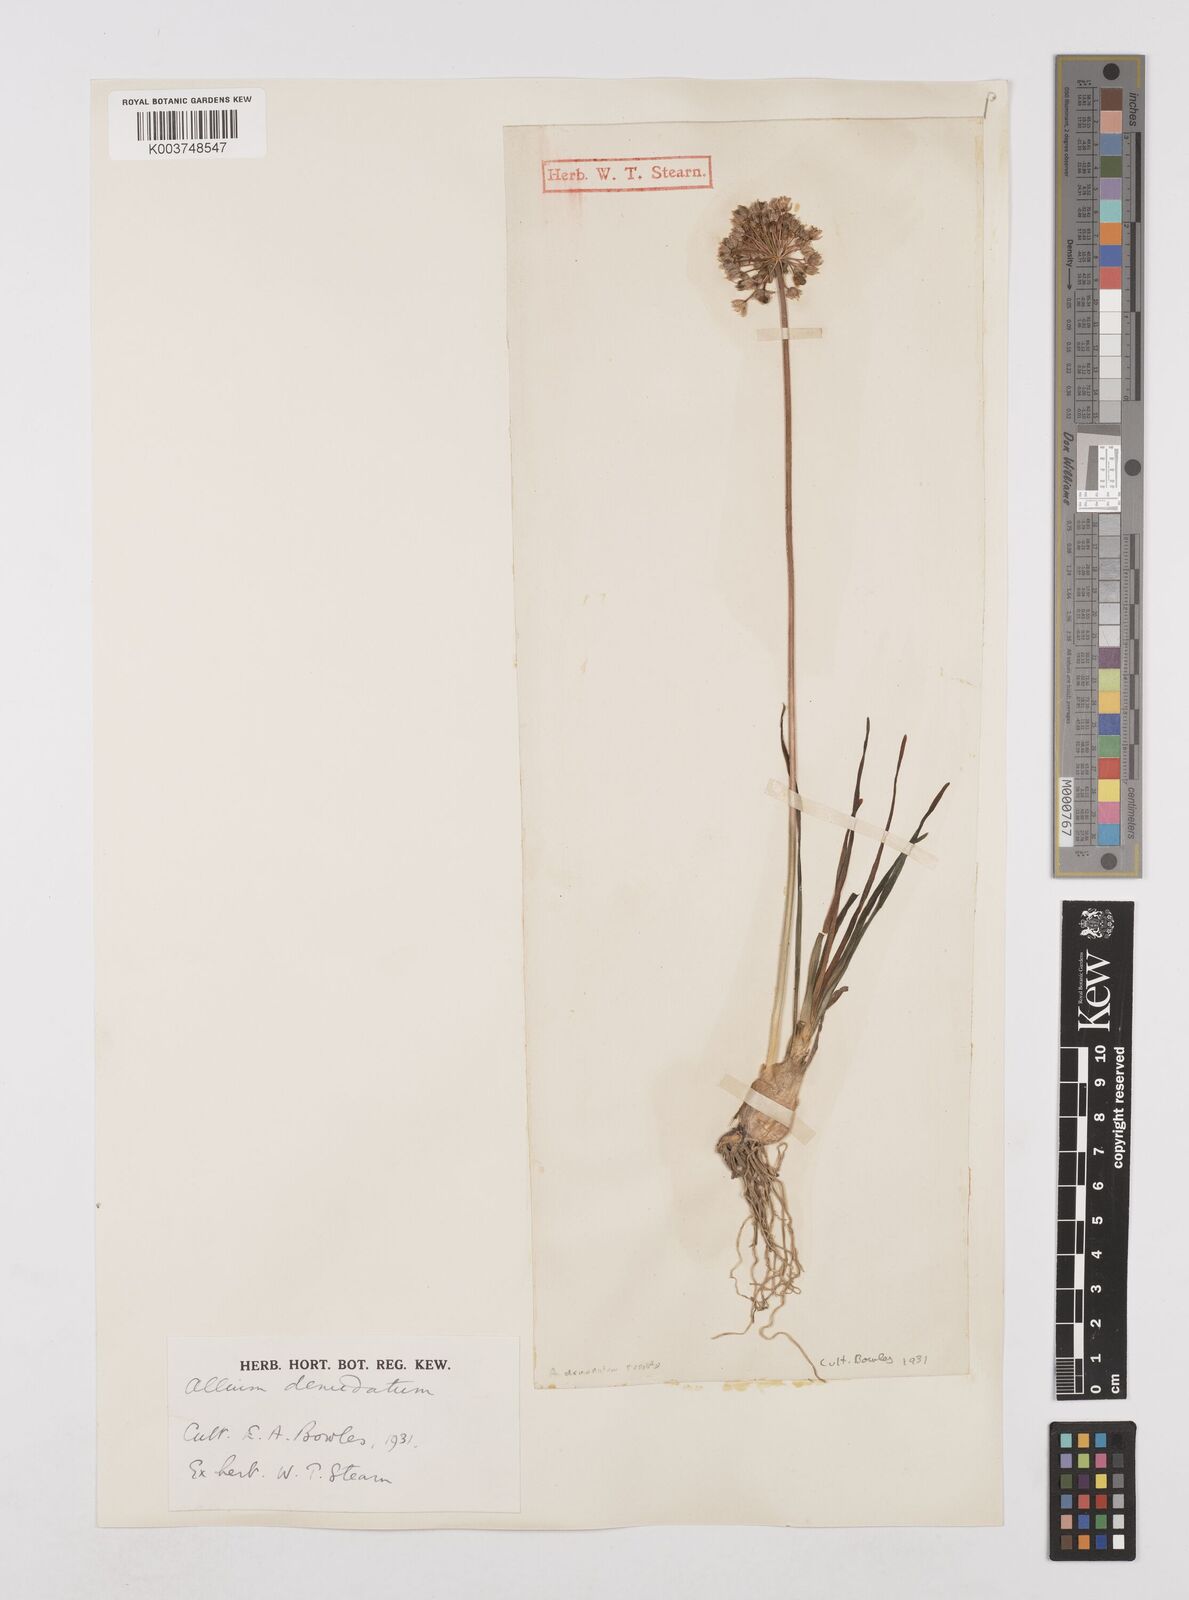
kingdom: Plantae
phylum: Tracheophyta
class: Liliopsida
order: Asparagales
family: Amaryllidaceae
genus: Allium
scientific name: Allium ericetorum
